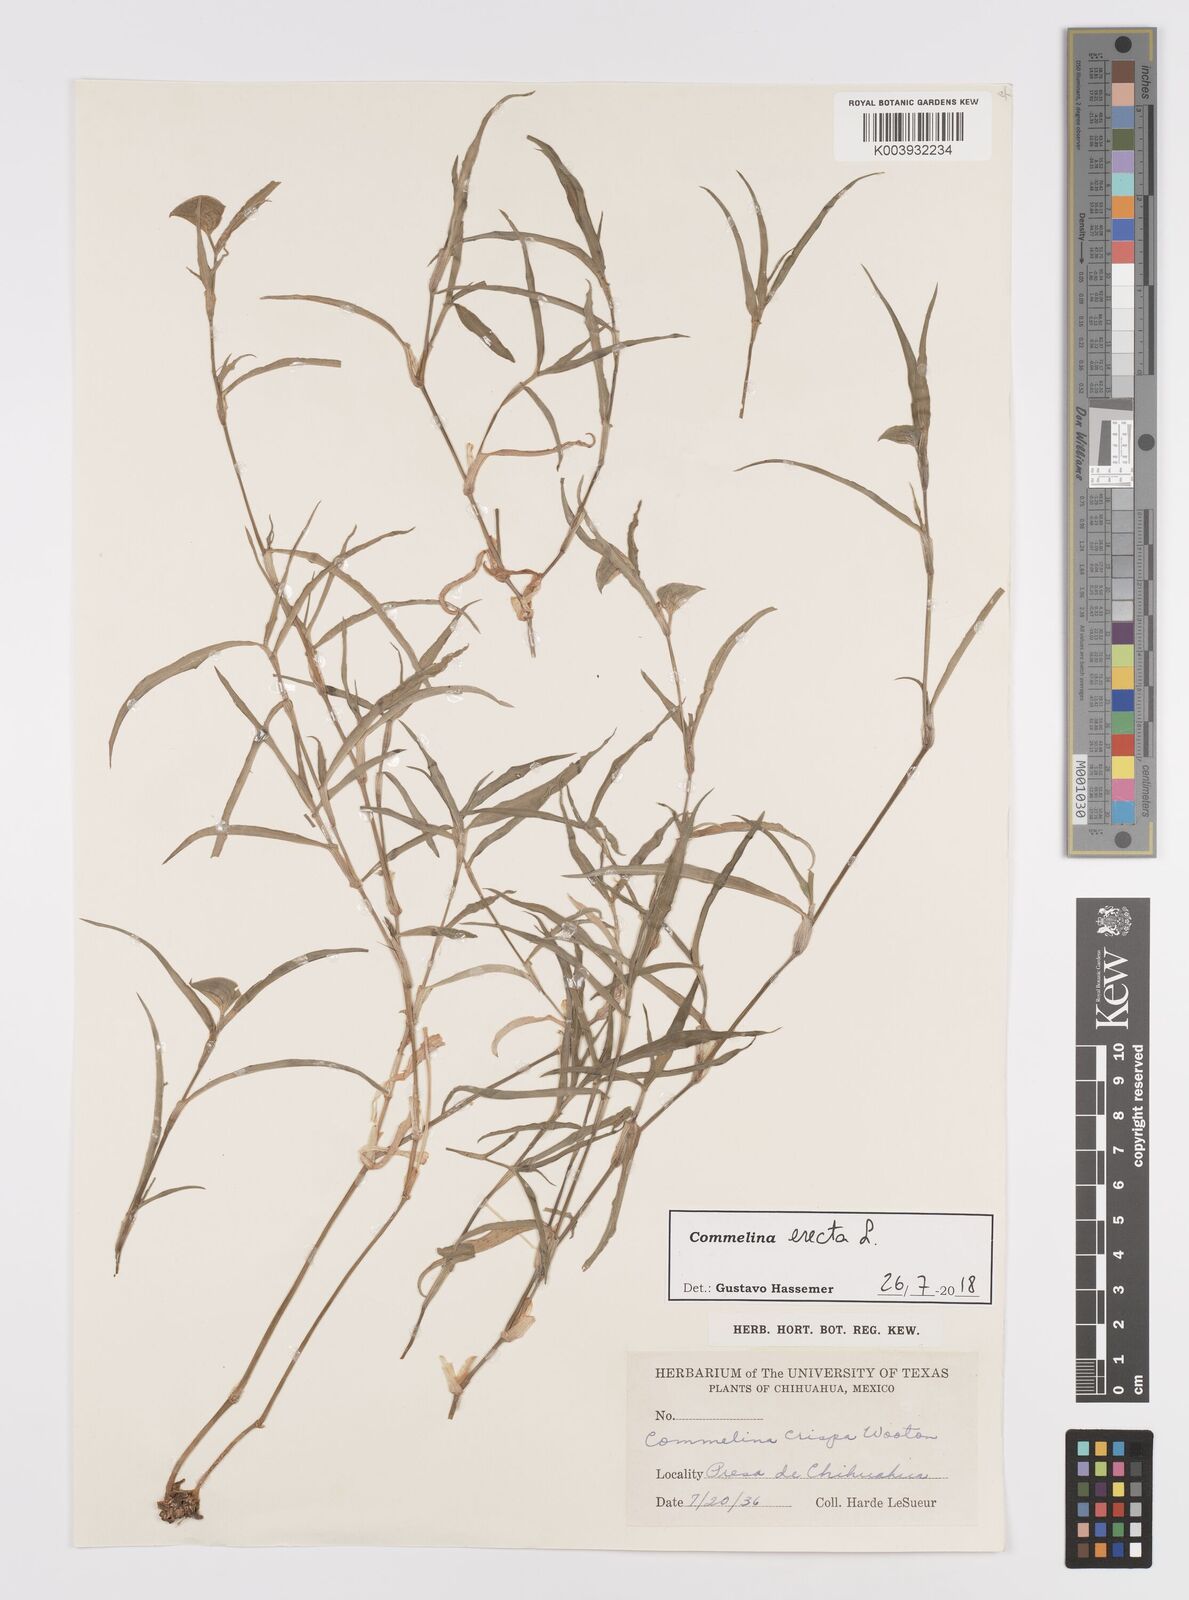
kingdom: Plantae
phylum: Tracheophyta
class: Liliopsida
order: Commelinales
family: Commelinaceae
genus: Commelina
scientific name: Commelina erecta
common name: Blousel blommetjie
